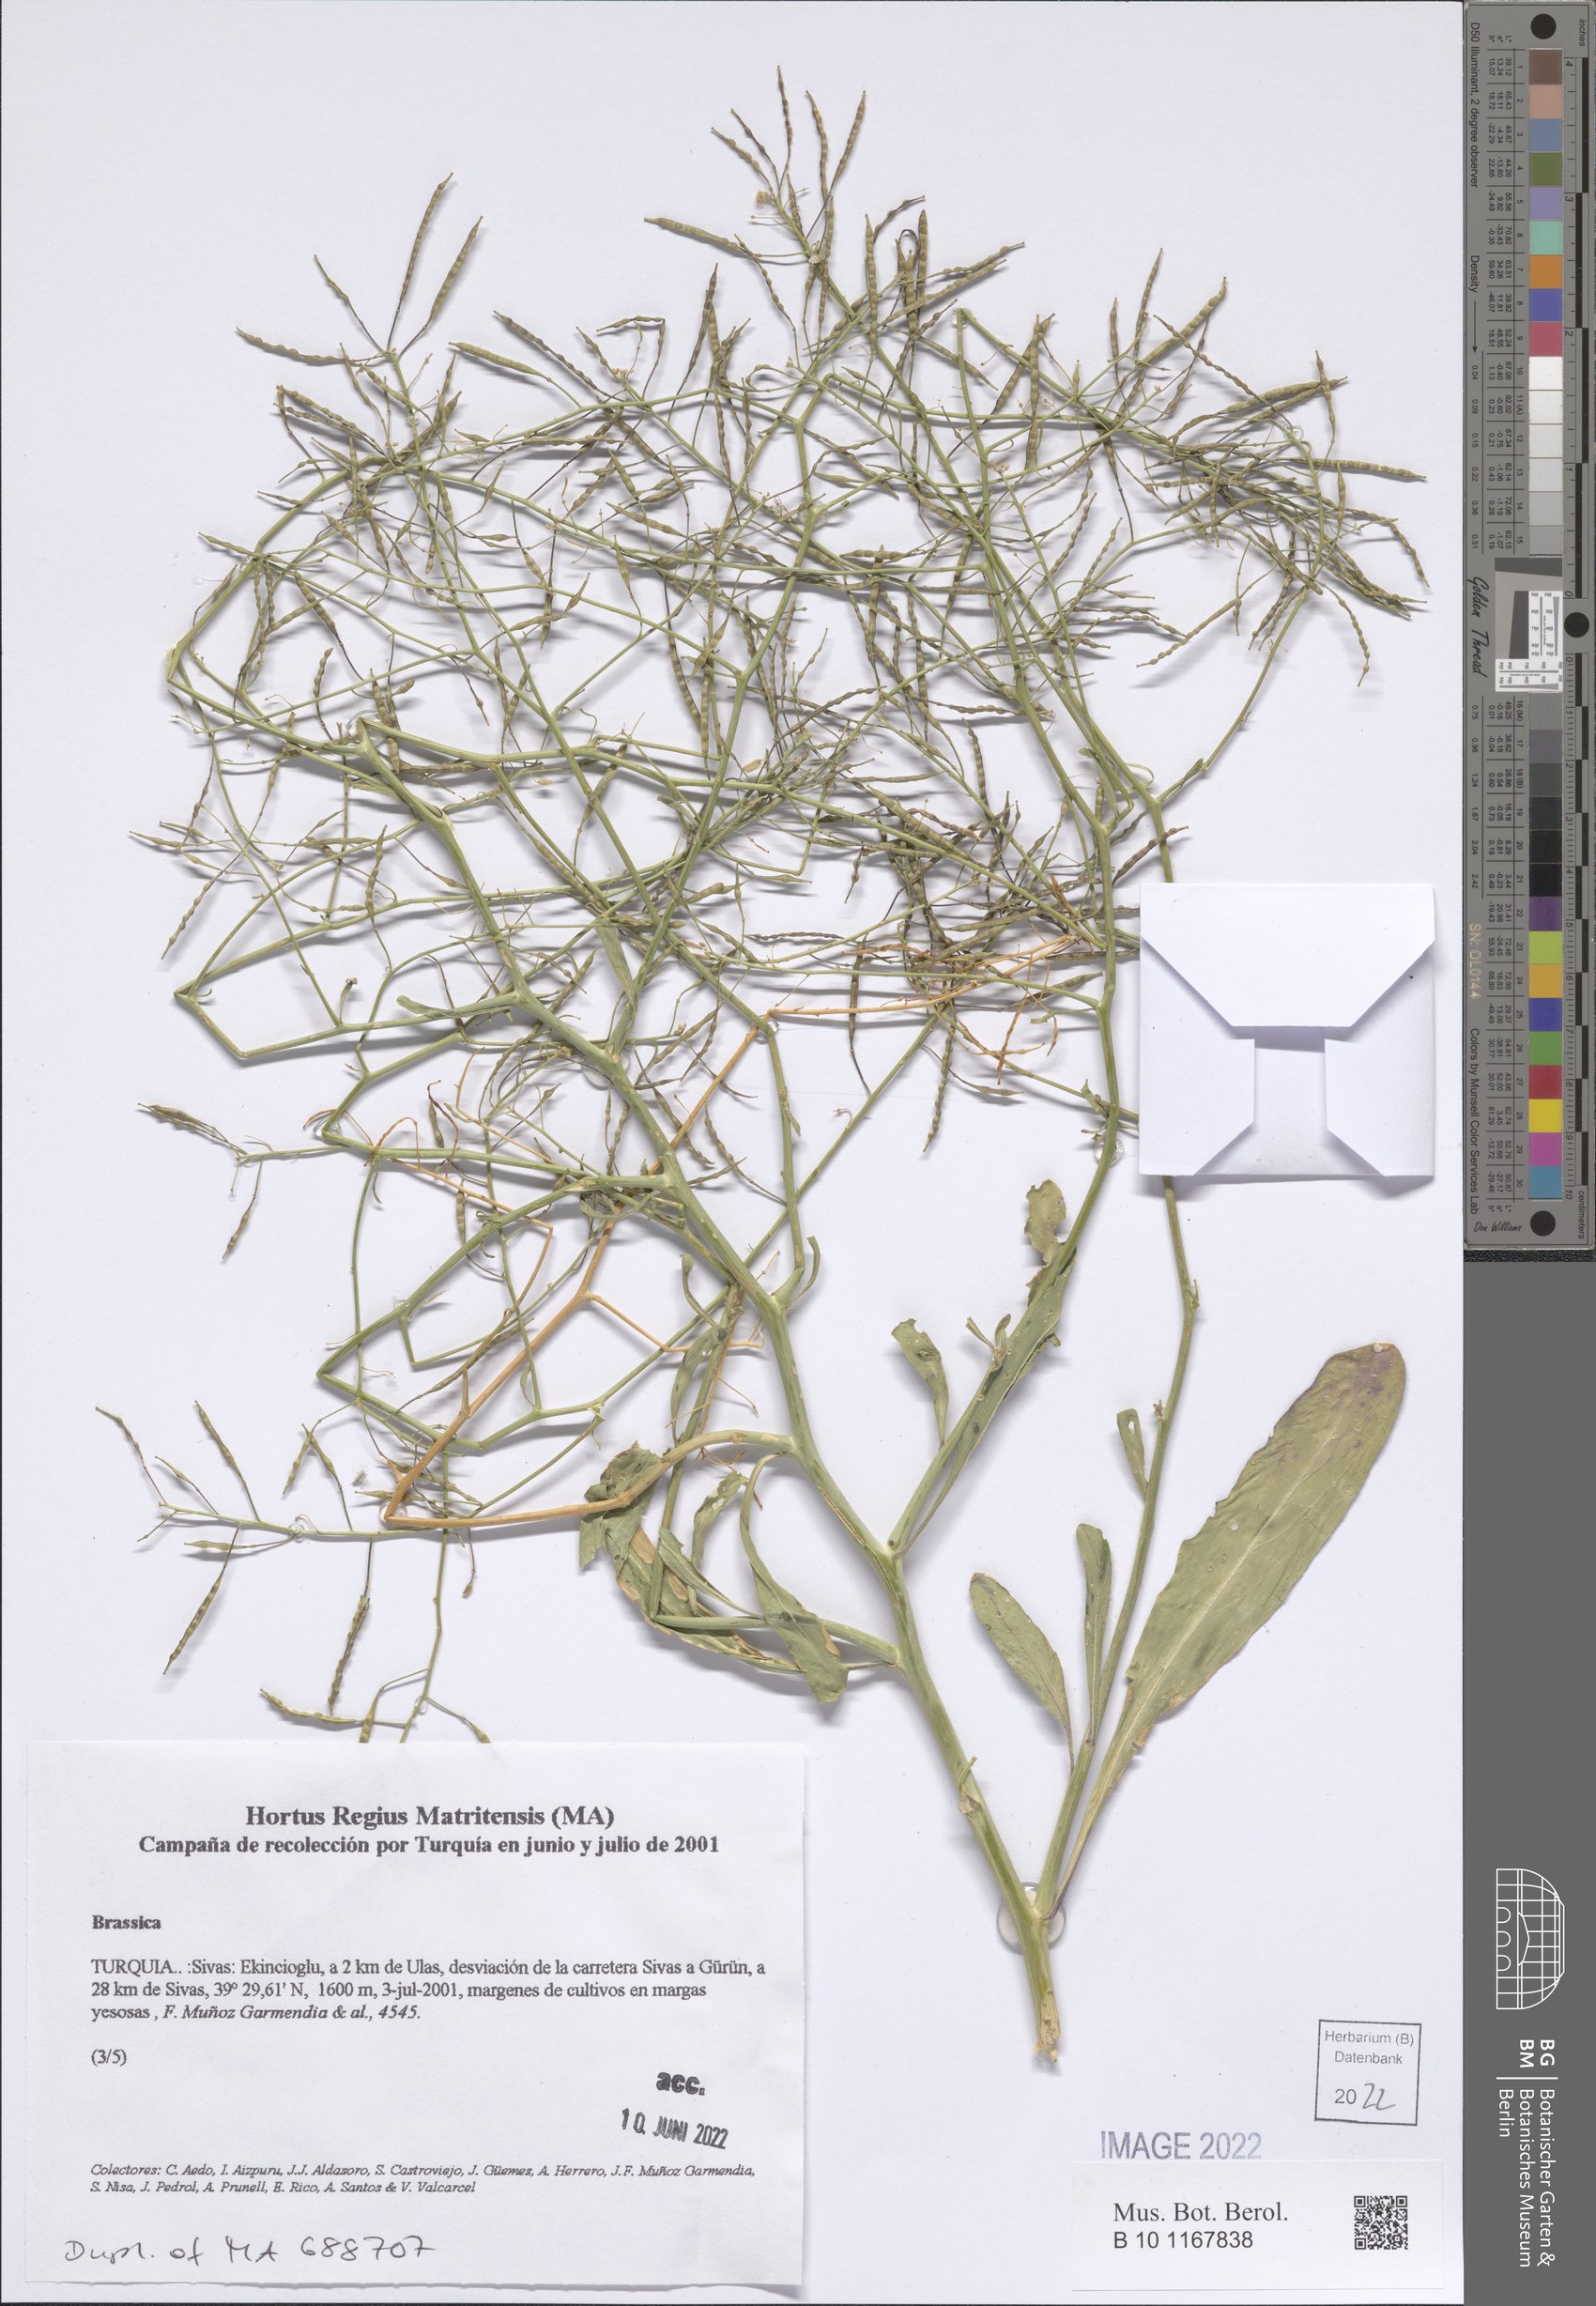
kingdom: Plantae
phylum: Tracheophyta
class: Magnoliopsida
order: Brassicales
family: Brassicaceae
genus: Brassica
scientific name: Brassica
